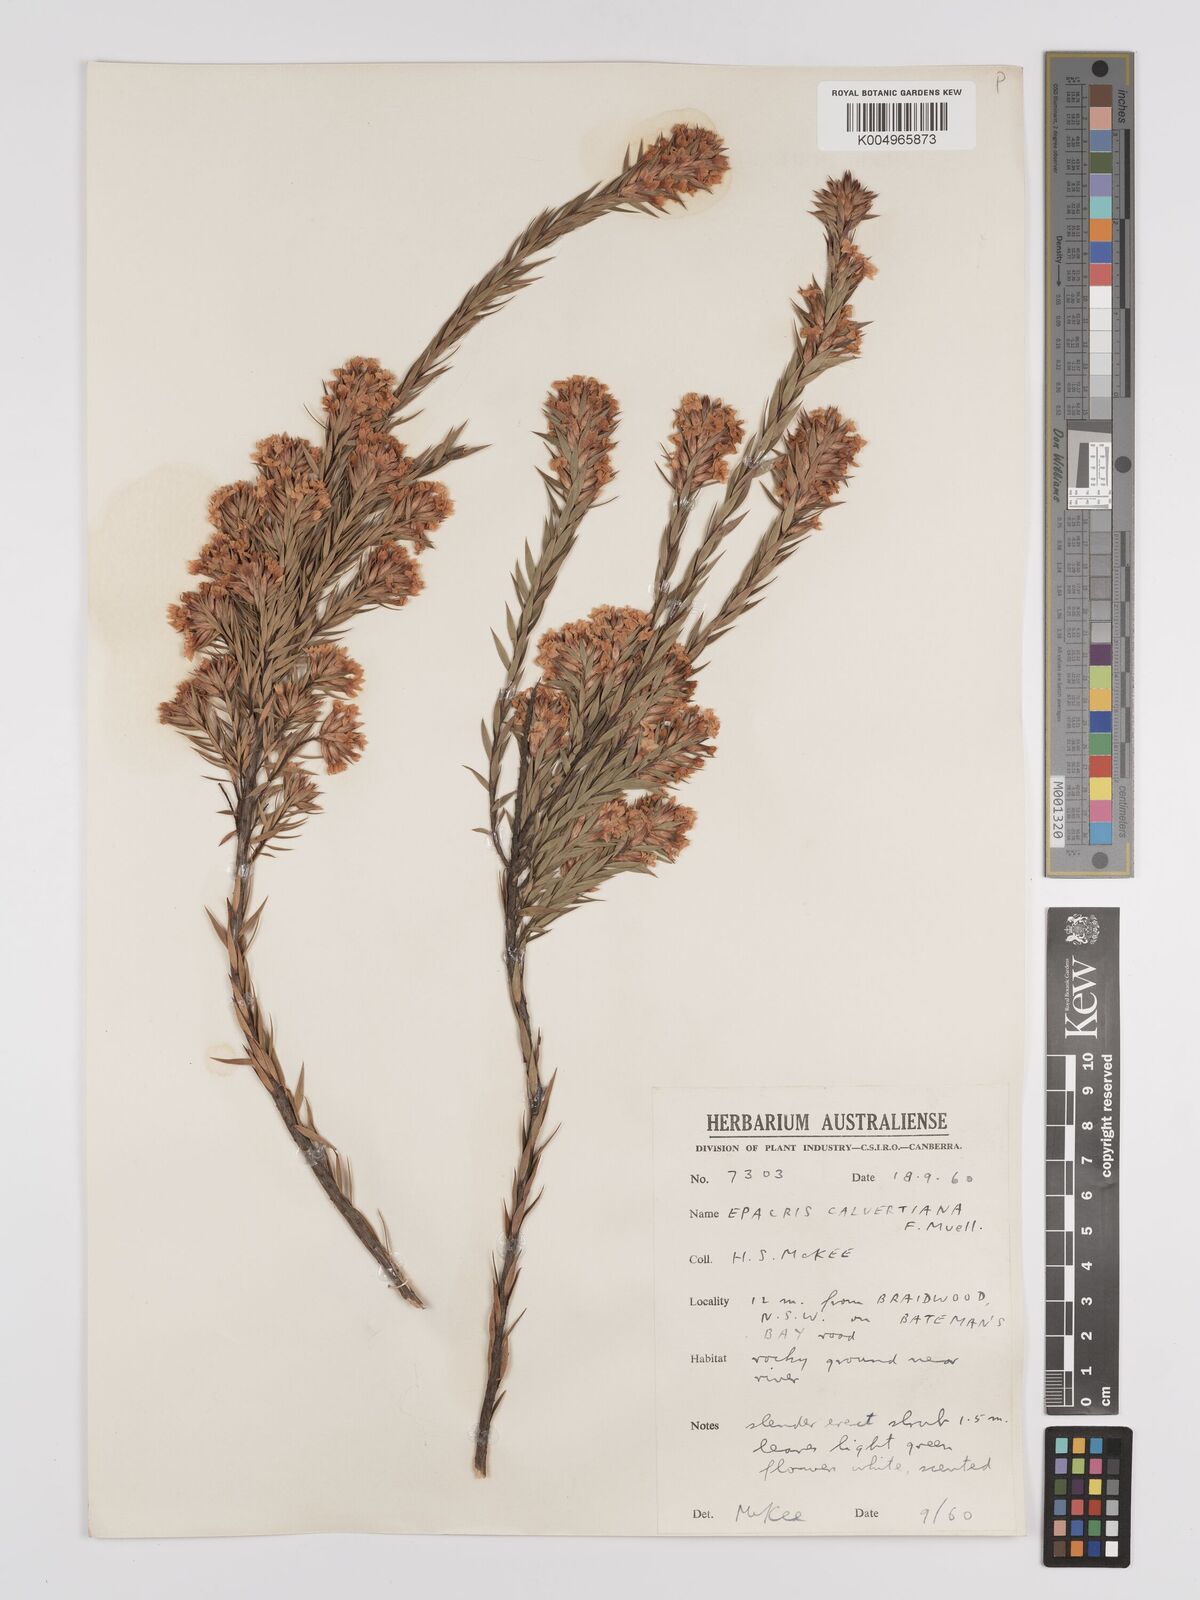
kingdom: Plantae
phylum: Tracheophyta
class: Magnoliopsida
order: Ericales
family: Ericaceae
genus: Epacris
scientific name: Epacris calvertiana
